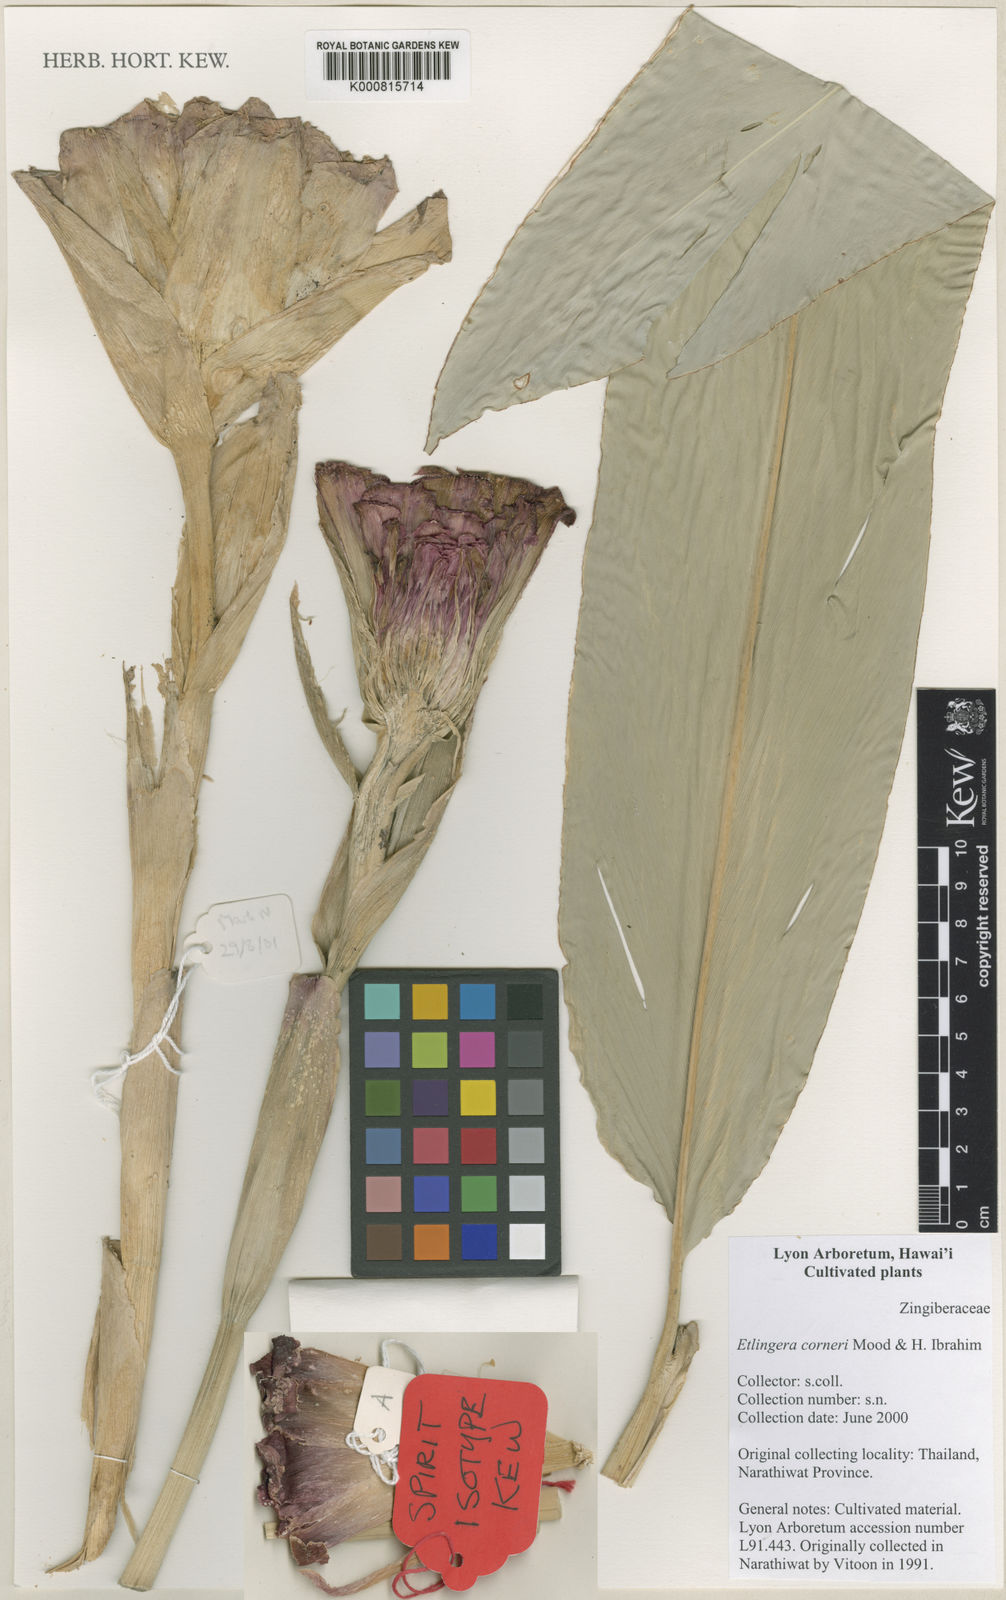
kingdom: Plantae
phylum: Tracheophyta
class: Liliopsida
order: Zingiberales
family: Zingiberaceae
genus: Etlingera
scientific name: Etlingera corneri
